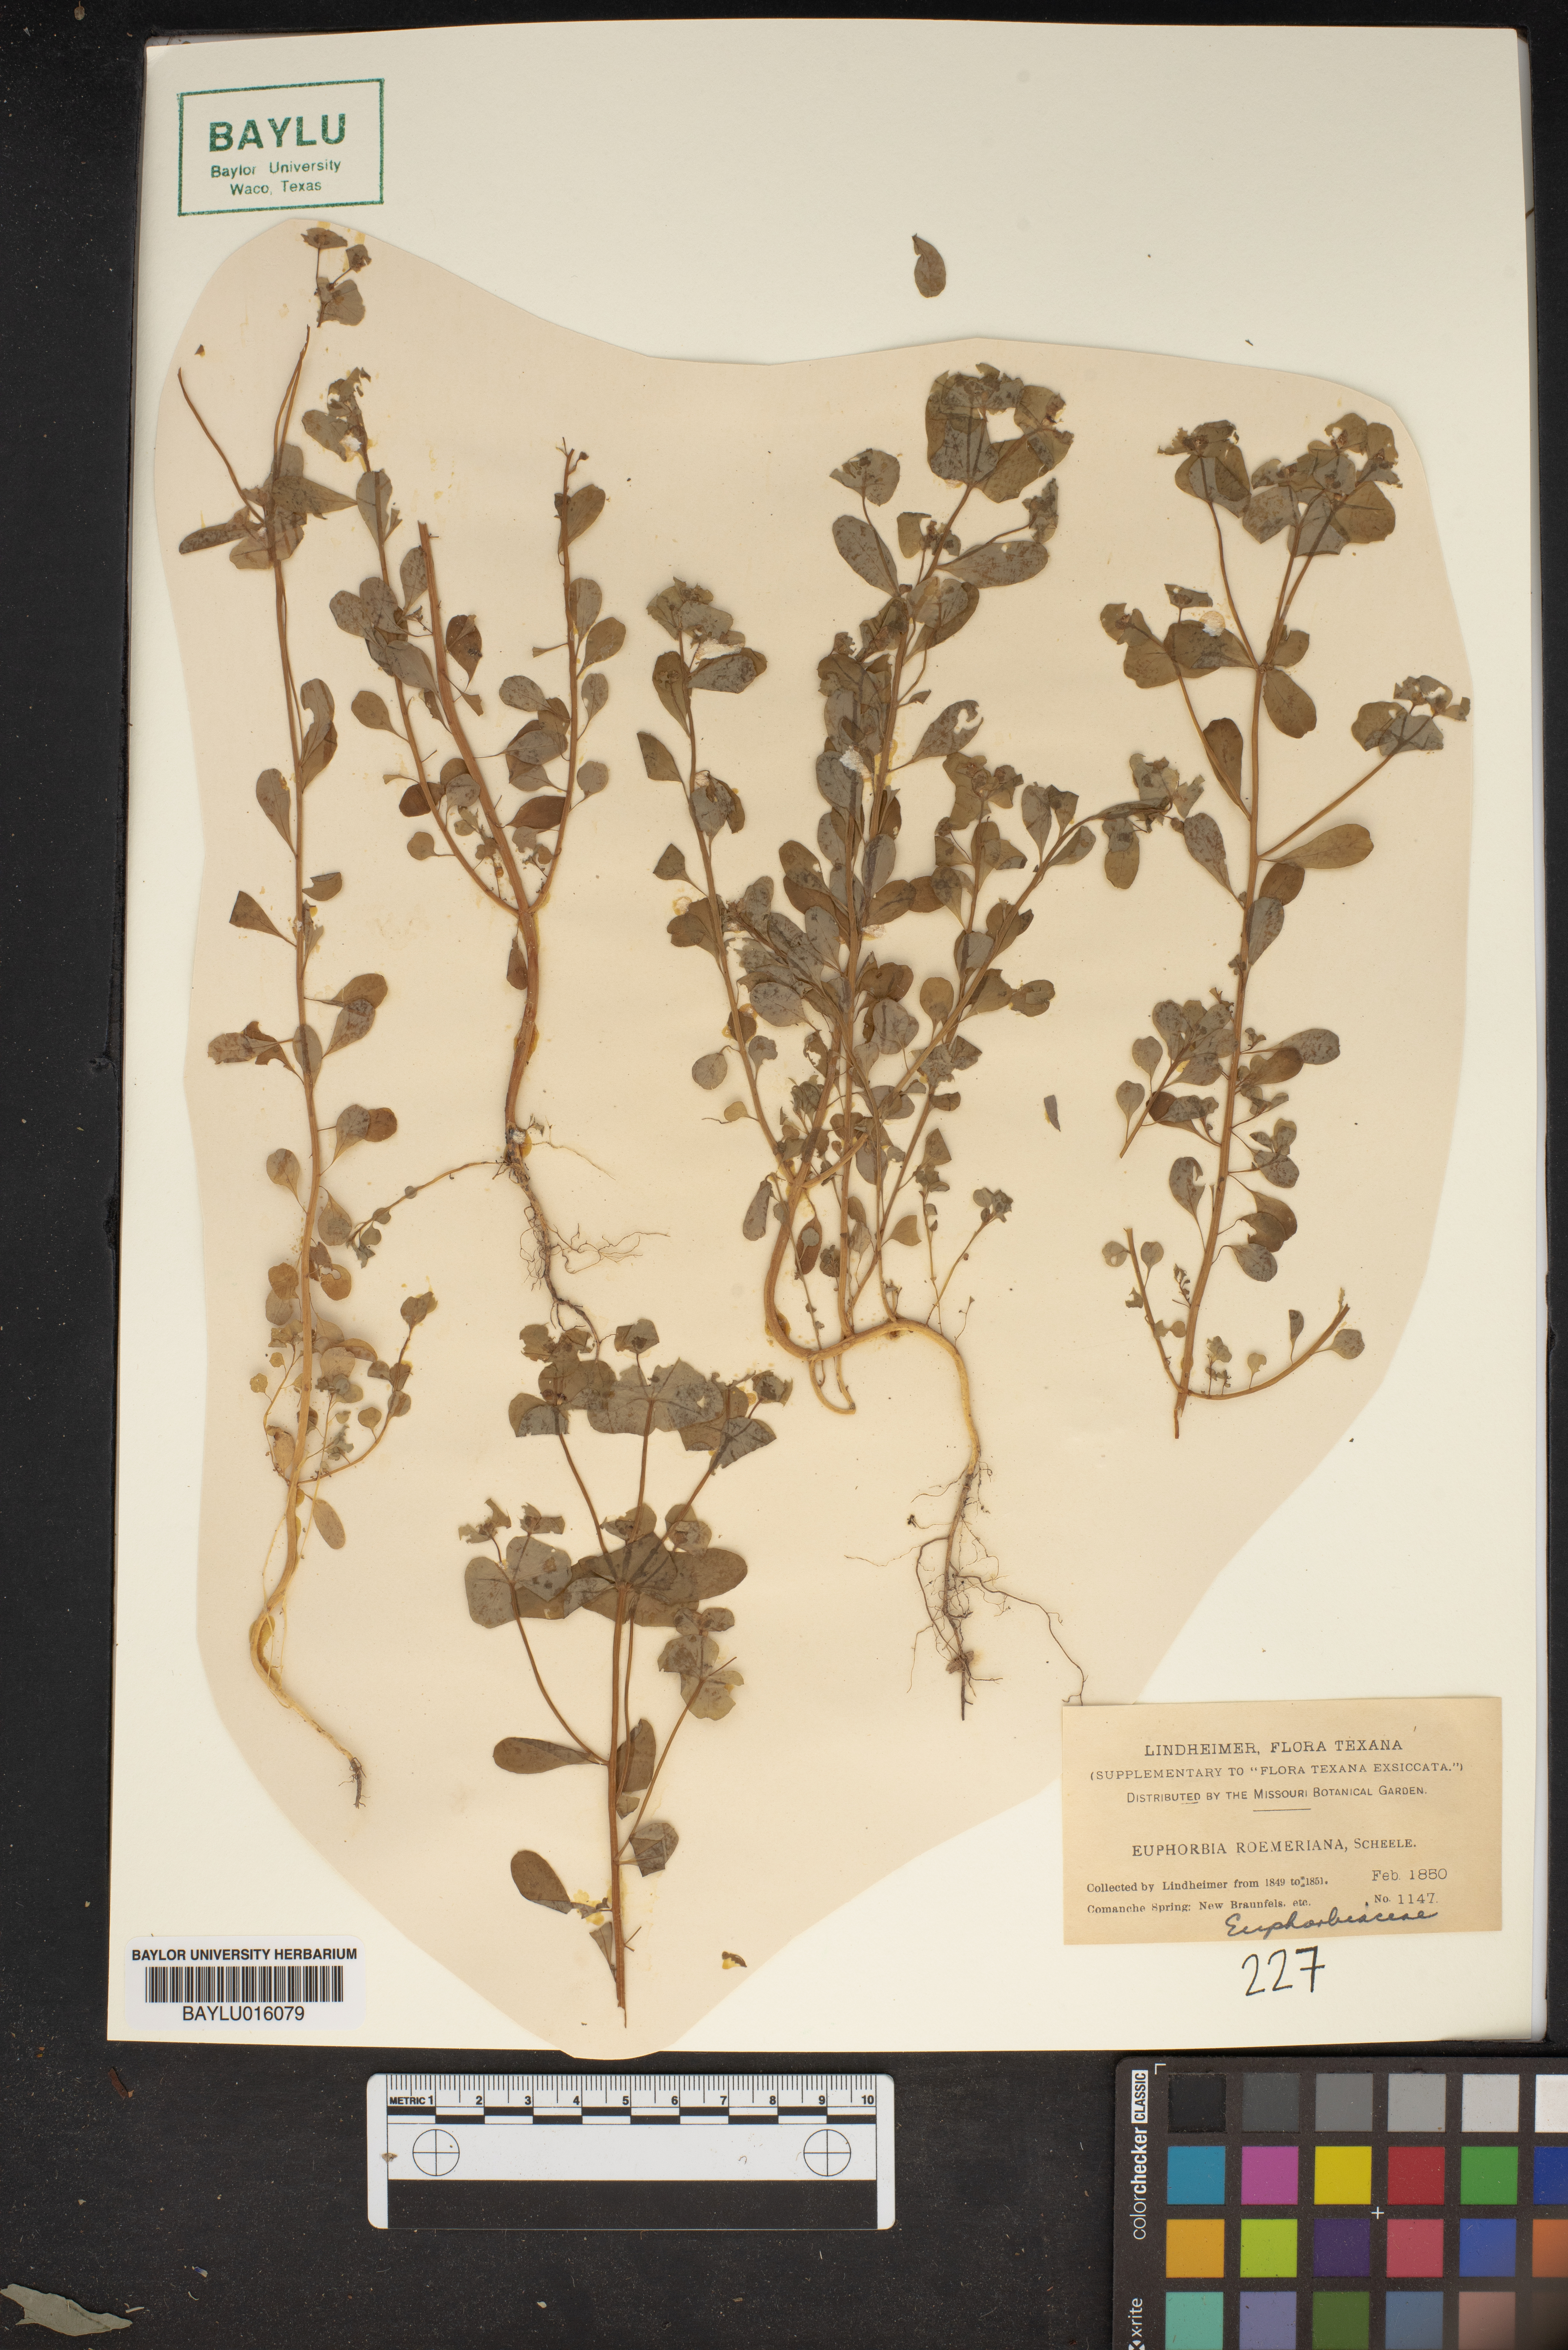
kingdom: Plantae
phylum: Tracheophyta
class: Magnoliopsida
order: Malpighiales
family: Euphorbiaceae
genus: Euphorbia
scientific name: Euphorbia roemeriana
